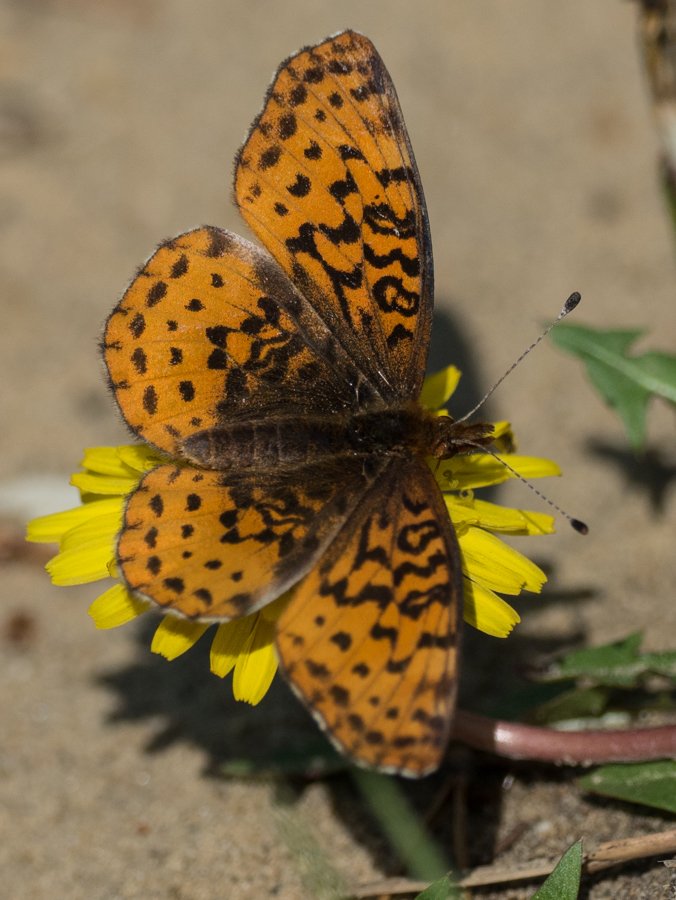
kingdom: Animalia
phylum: Arthropoda
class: Insecta
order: Lepidoptera
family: Nymphalidae
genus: Clossiana
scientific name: Clossiana toddi
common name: Meadow Fritillary
